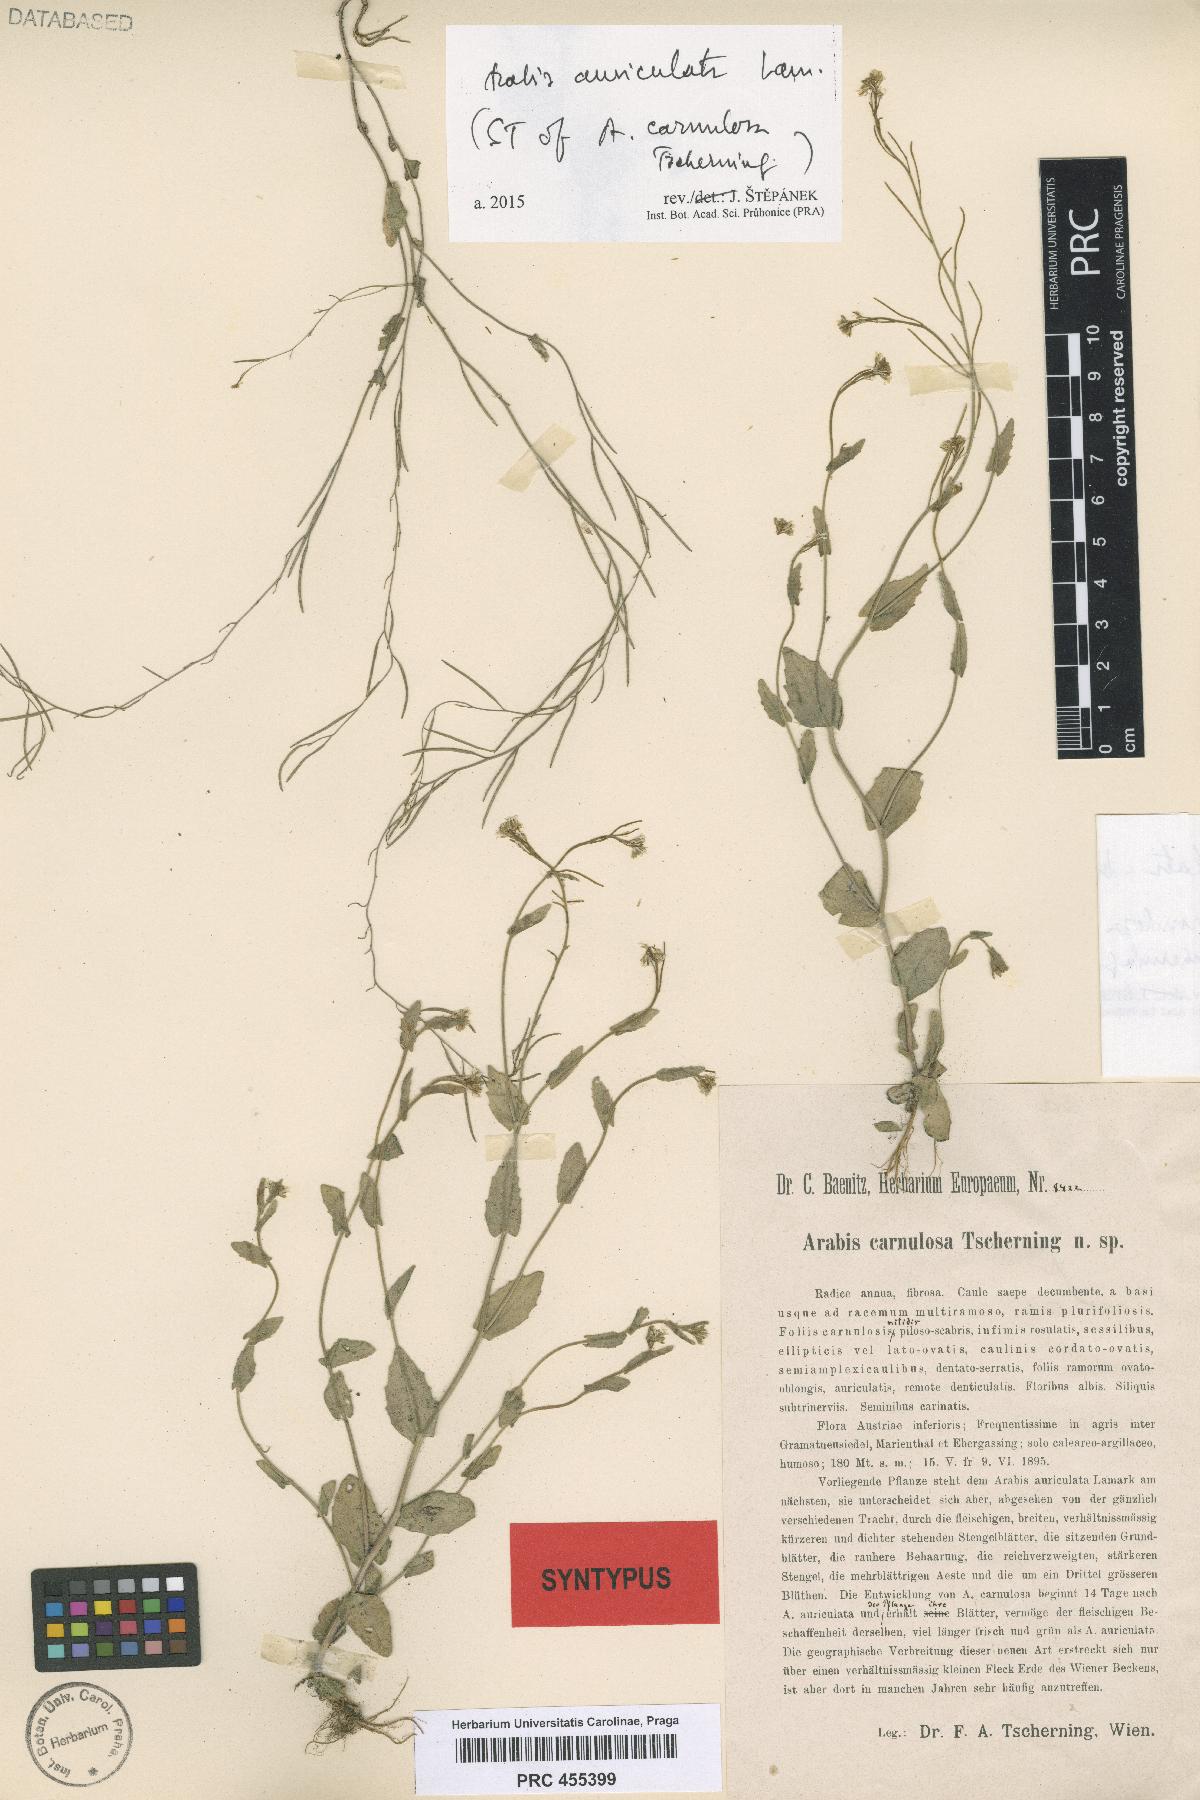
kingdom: Plantae
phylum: Tracheophyta
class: Magnoliopsida
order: Brassicales
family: Brassicaceae
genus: Arabis
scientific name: Arabis auriculata
